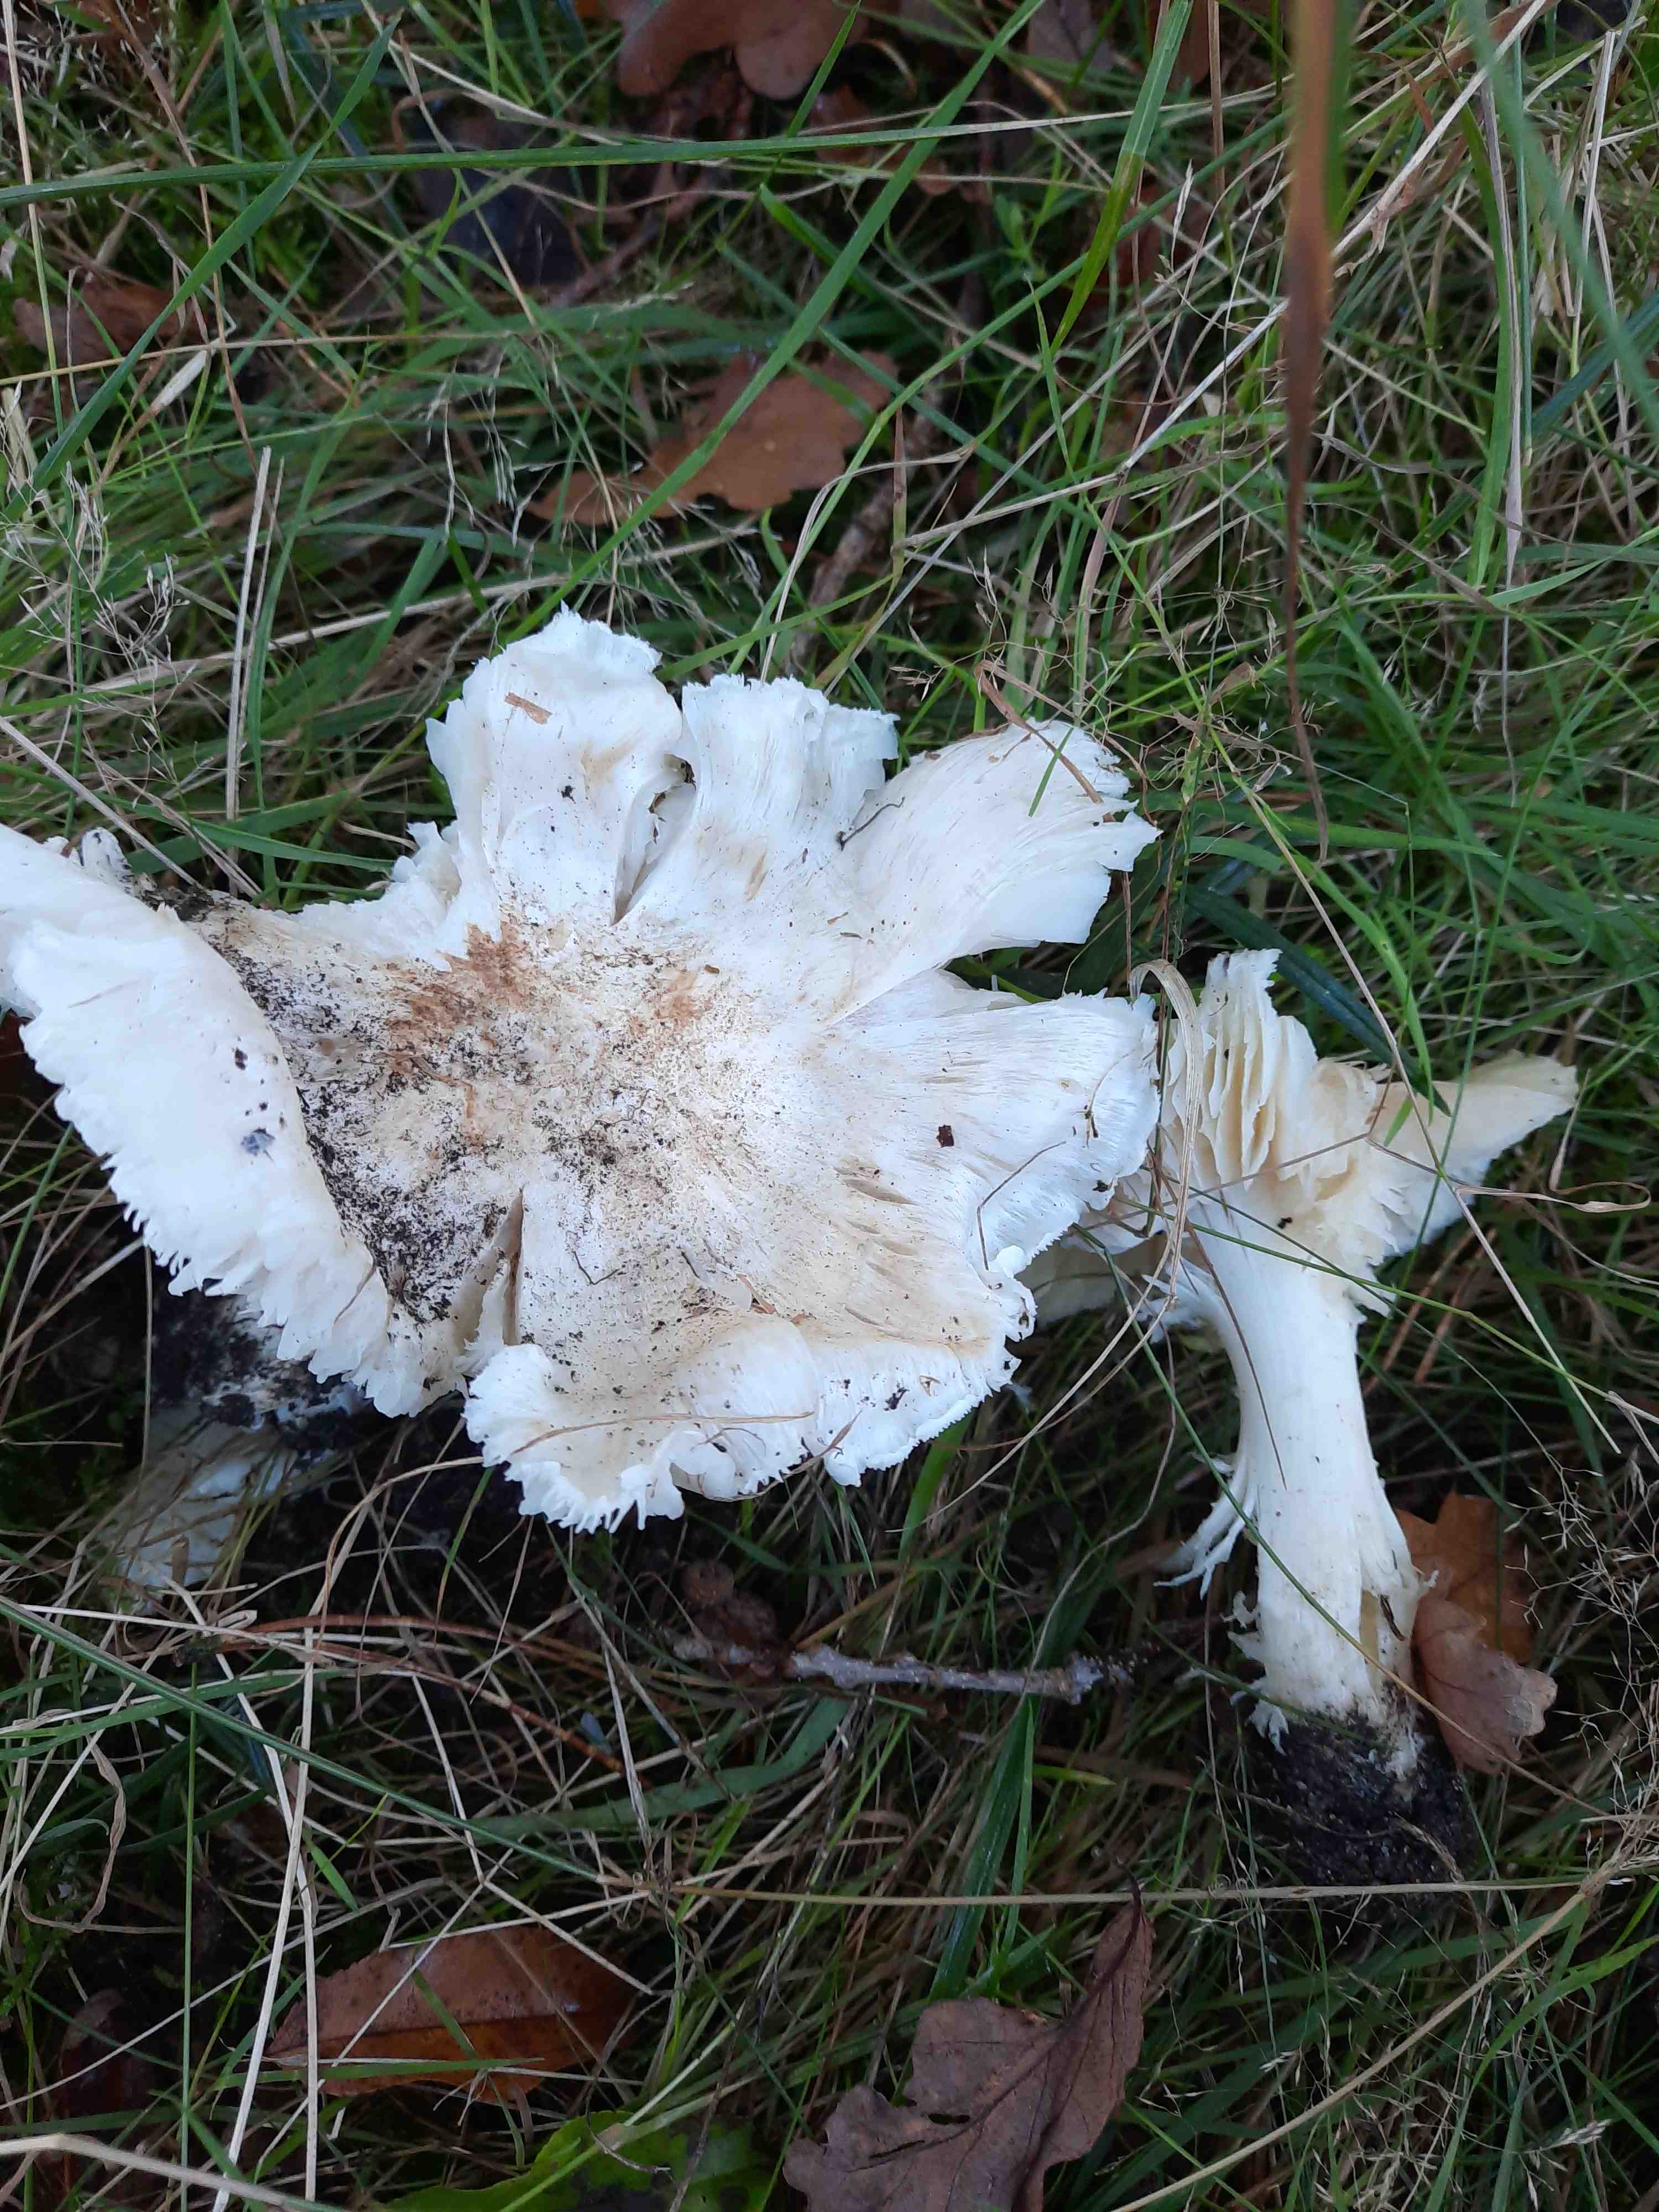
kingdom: Fungi
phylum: Basidiomycota
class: Agaricomycetes
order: Agaricales
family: Tricholomataceae
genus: Tricholoma
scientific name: Tricholoma columbetta
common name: silke-ridderhat
